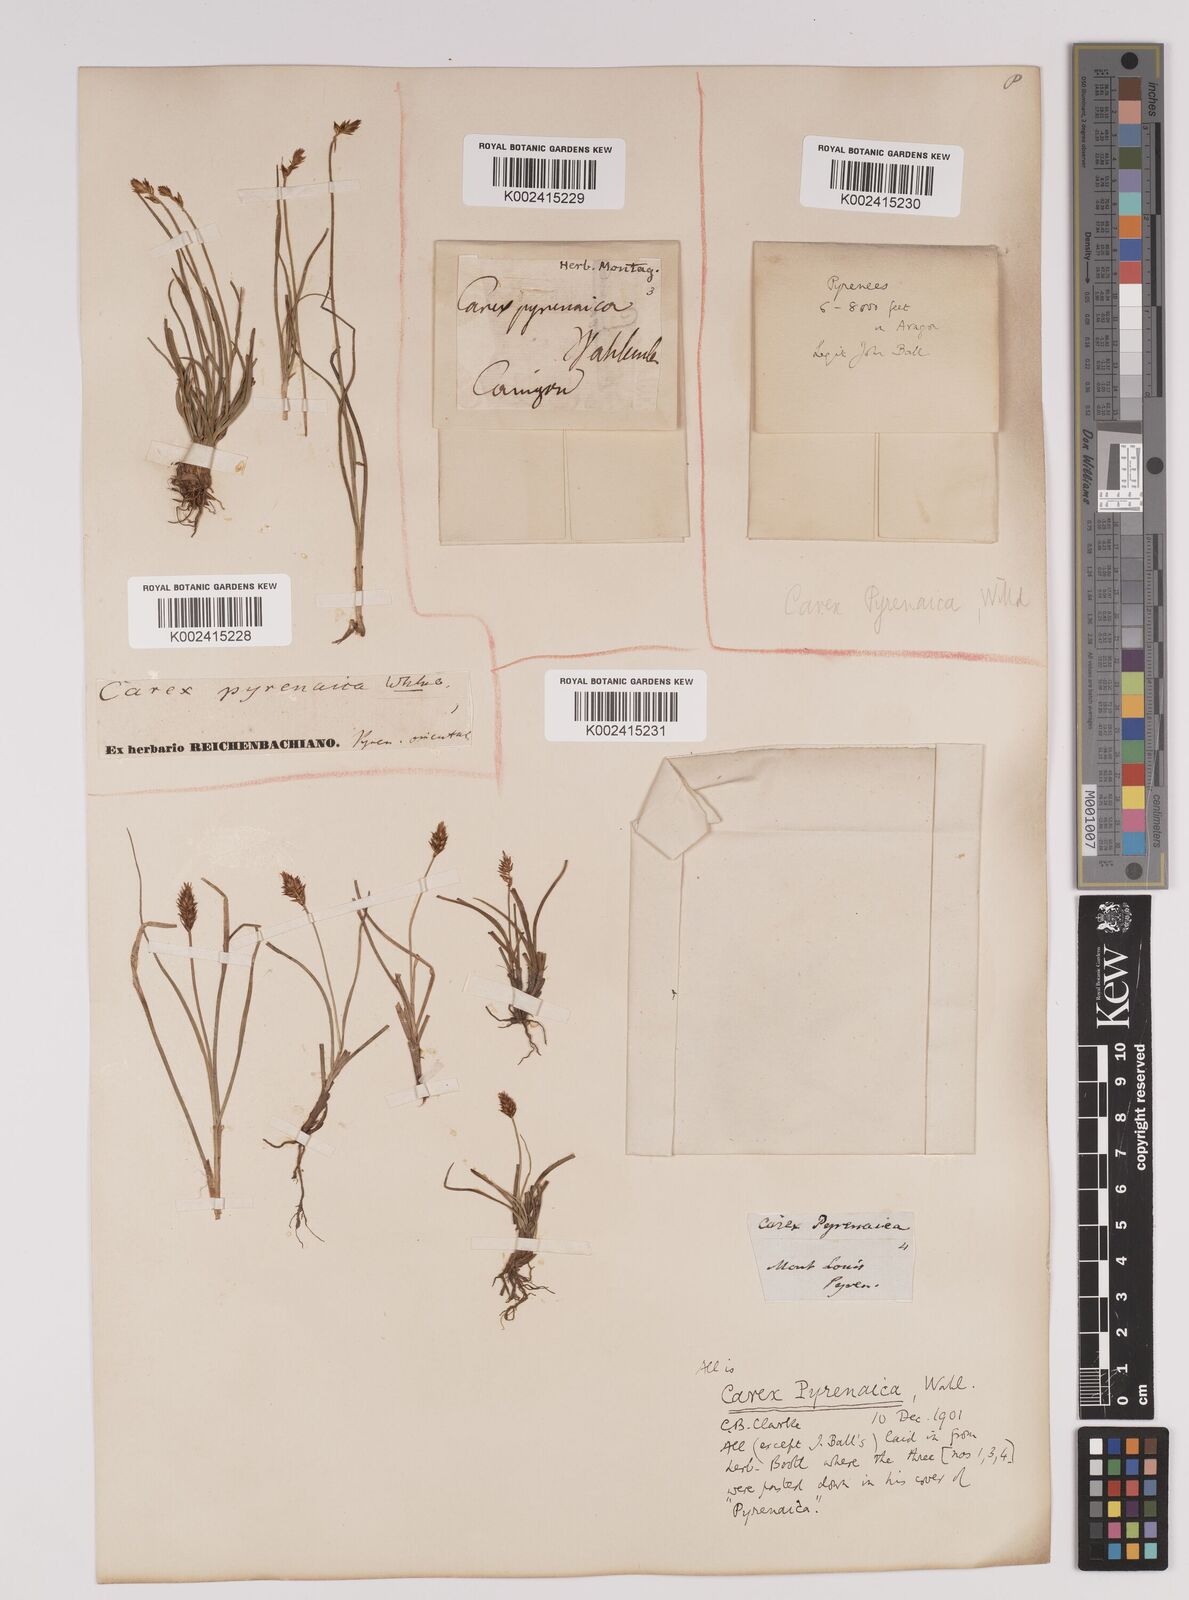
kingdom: Plantae
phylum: Tracheophyta
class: Liliopsida
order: Poales
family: Cyperaceae
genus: Carex
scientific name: Carex pyrenaica
